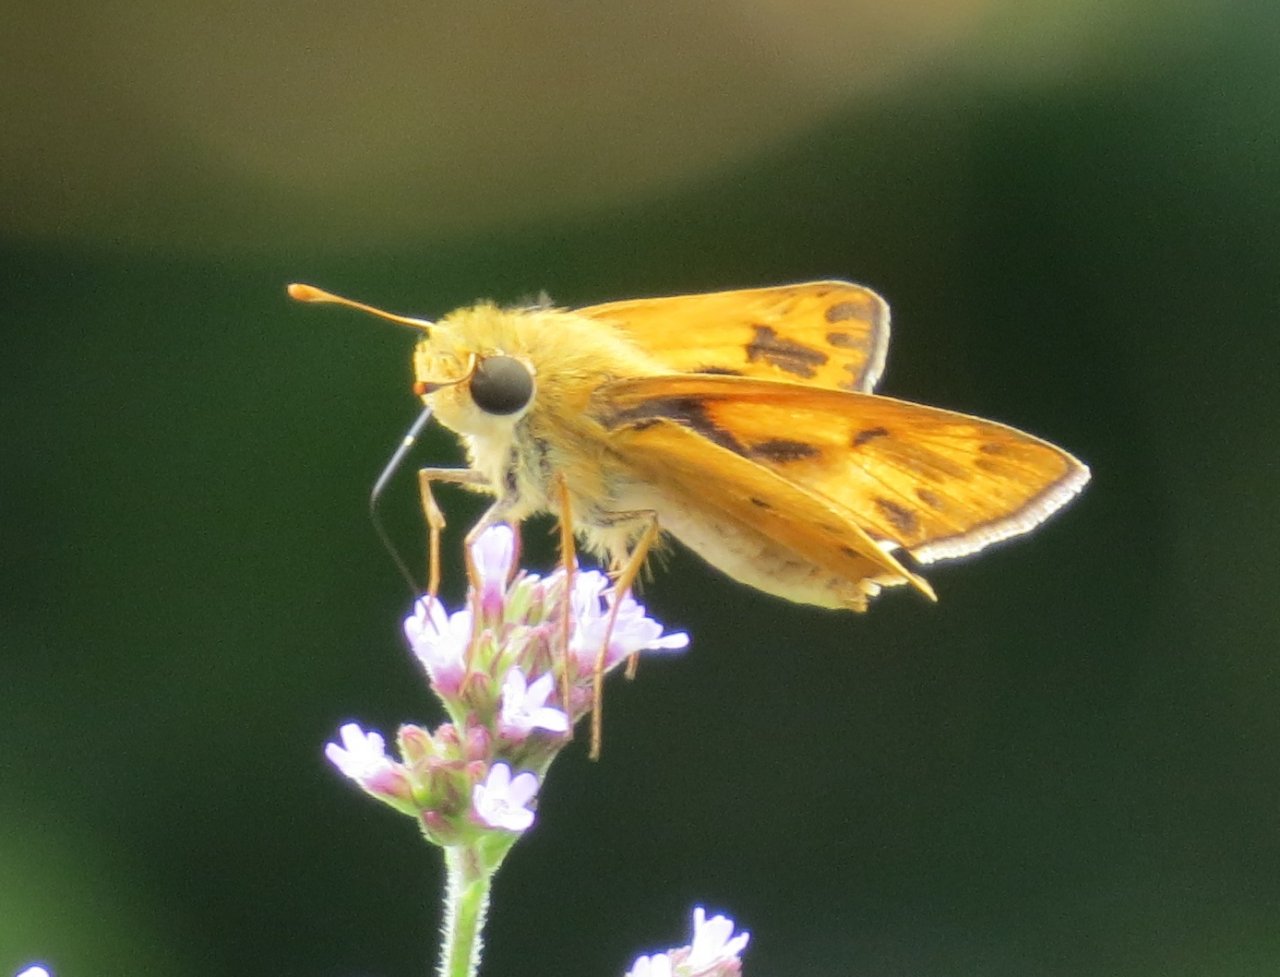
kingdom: Animalia
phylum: Arthropoda
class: Insecta
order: Lepidoptera
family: Hesperiidae
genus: Hylephila
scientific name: Hylephila phyleus
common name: Fiery Skipper
